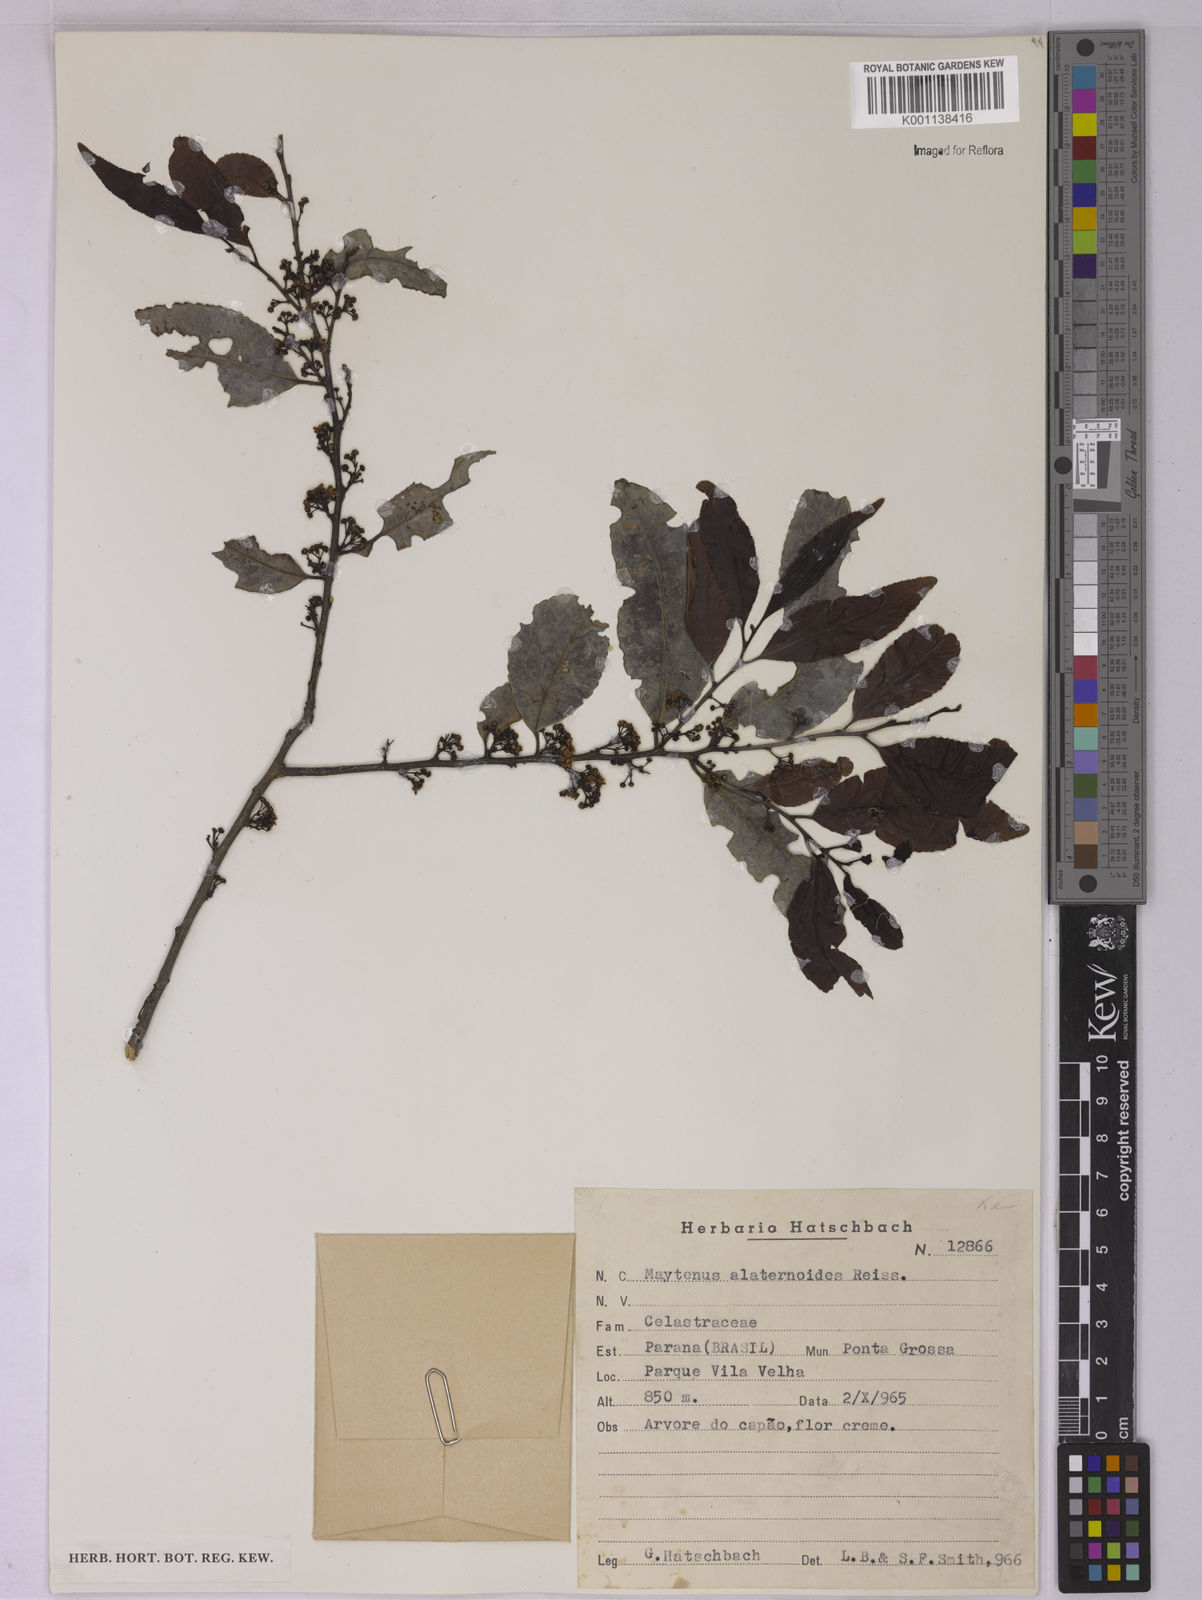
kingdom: Plantae
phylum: Tracheophyta
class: Magnoliopsida
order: Celastrales
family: Celastraceae
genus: Maytenus
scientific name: Maytenus alaternoides
